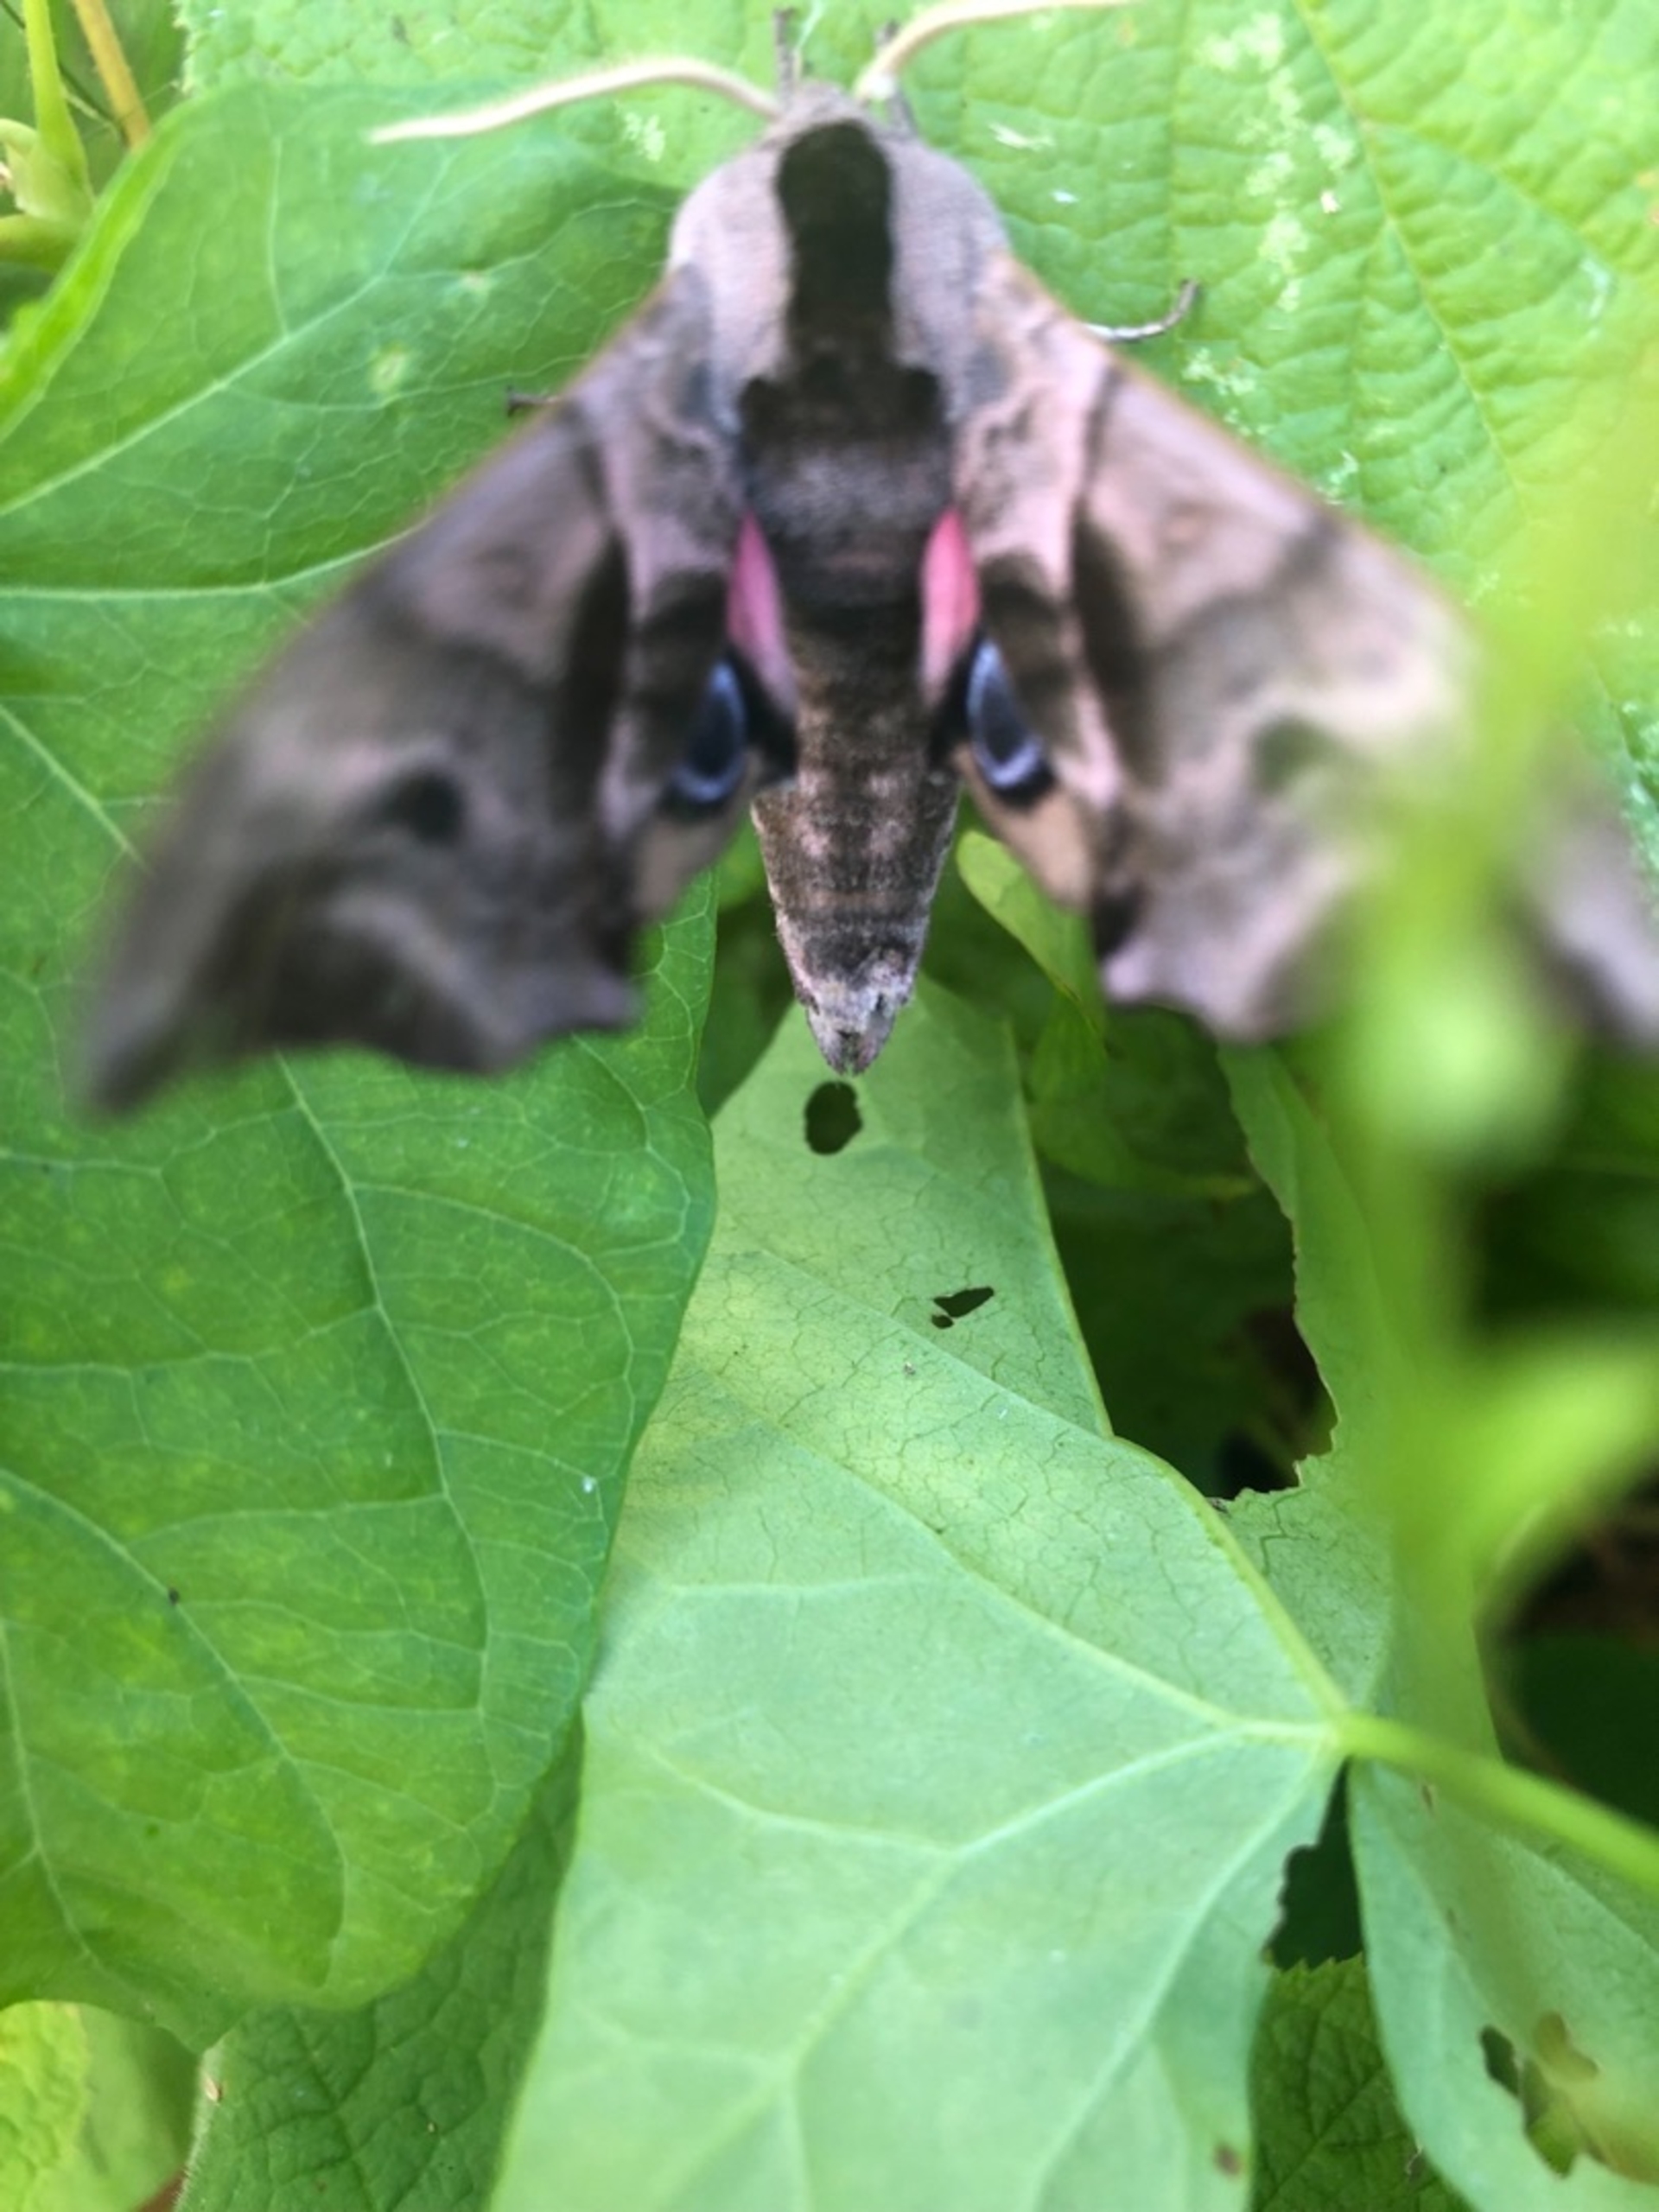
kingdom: Animalia
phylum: Arthropoda
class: Insecta
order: Lepidoptera
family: Sphingidae
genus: Smerinthus
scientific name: Smerinthus ocellata
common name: Aftenpåfugleøje
